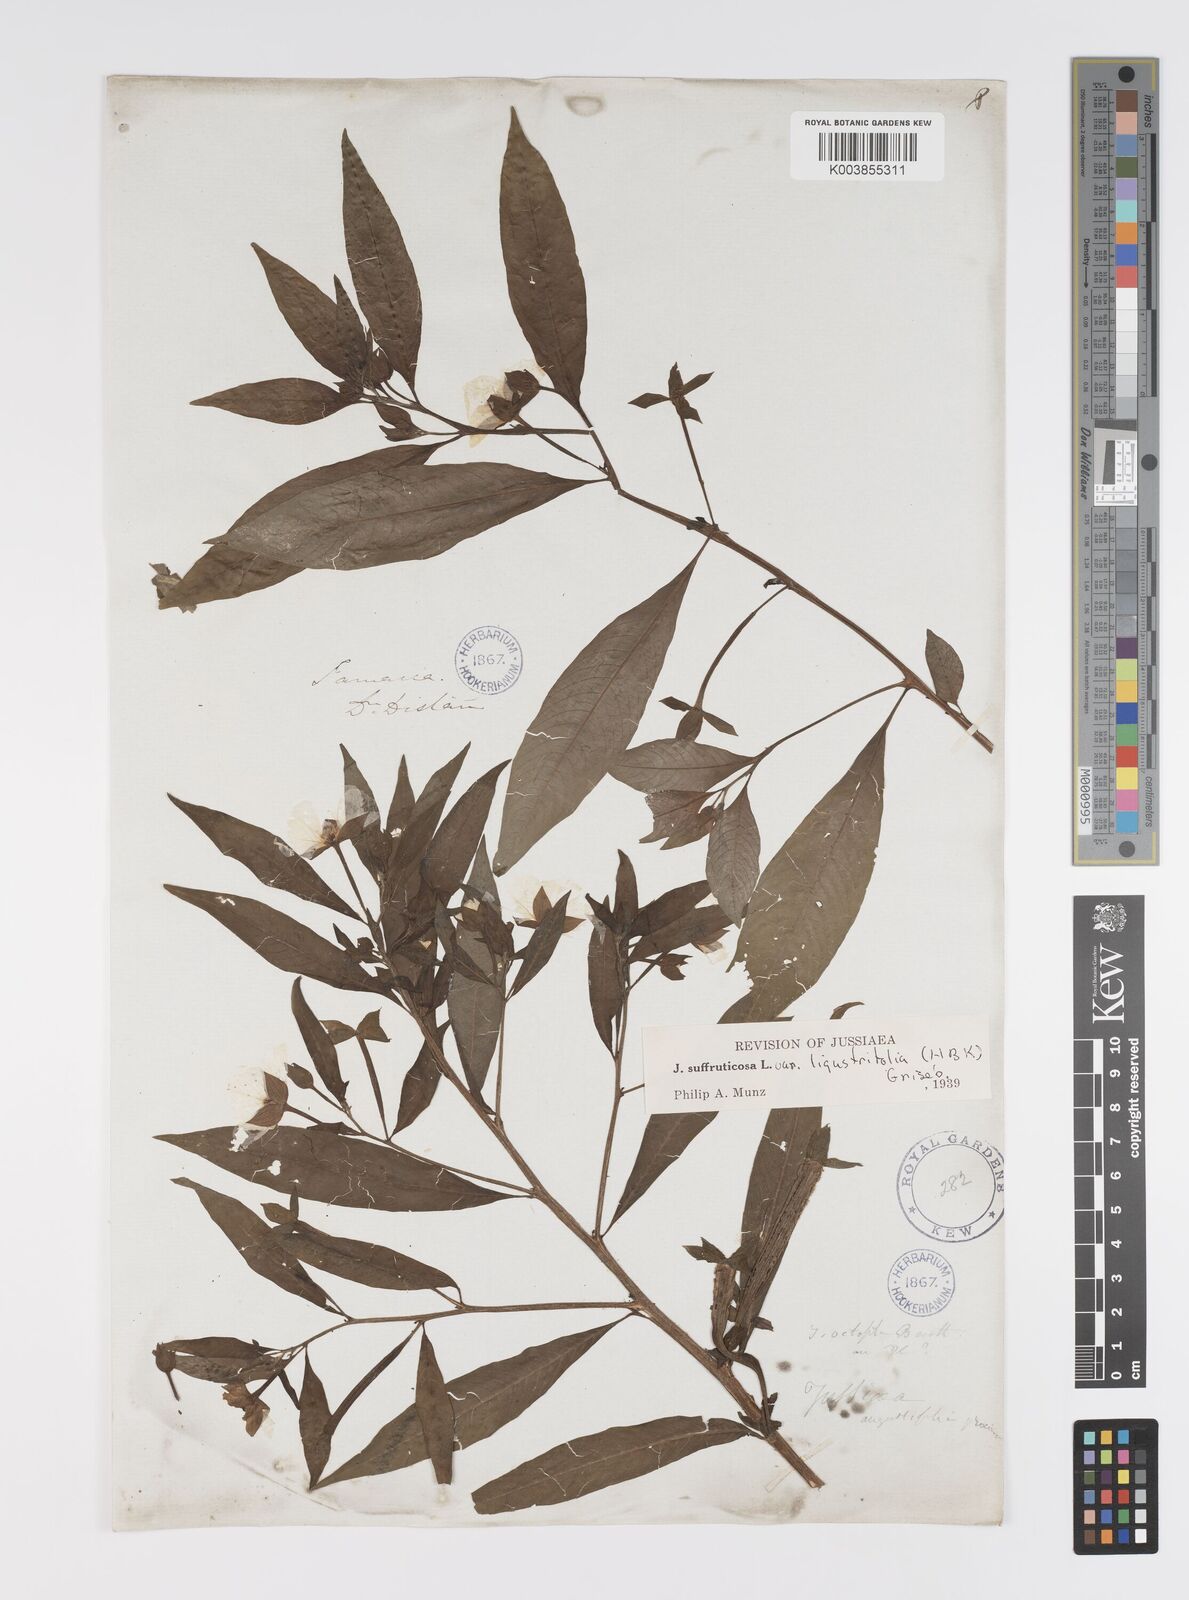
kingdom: Plantae
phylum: Tracheophyta
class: Magnoliopsida
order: Myrtales
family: Onagraceae
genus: Ludwigia
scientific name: Ludwigia
